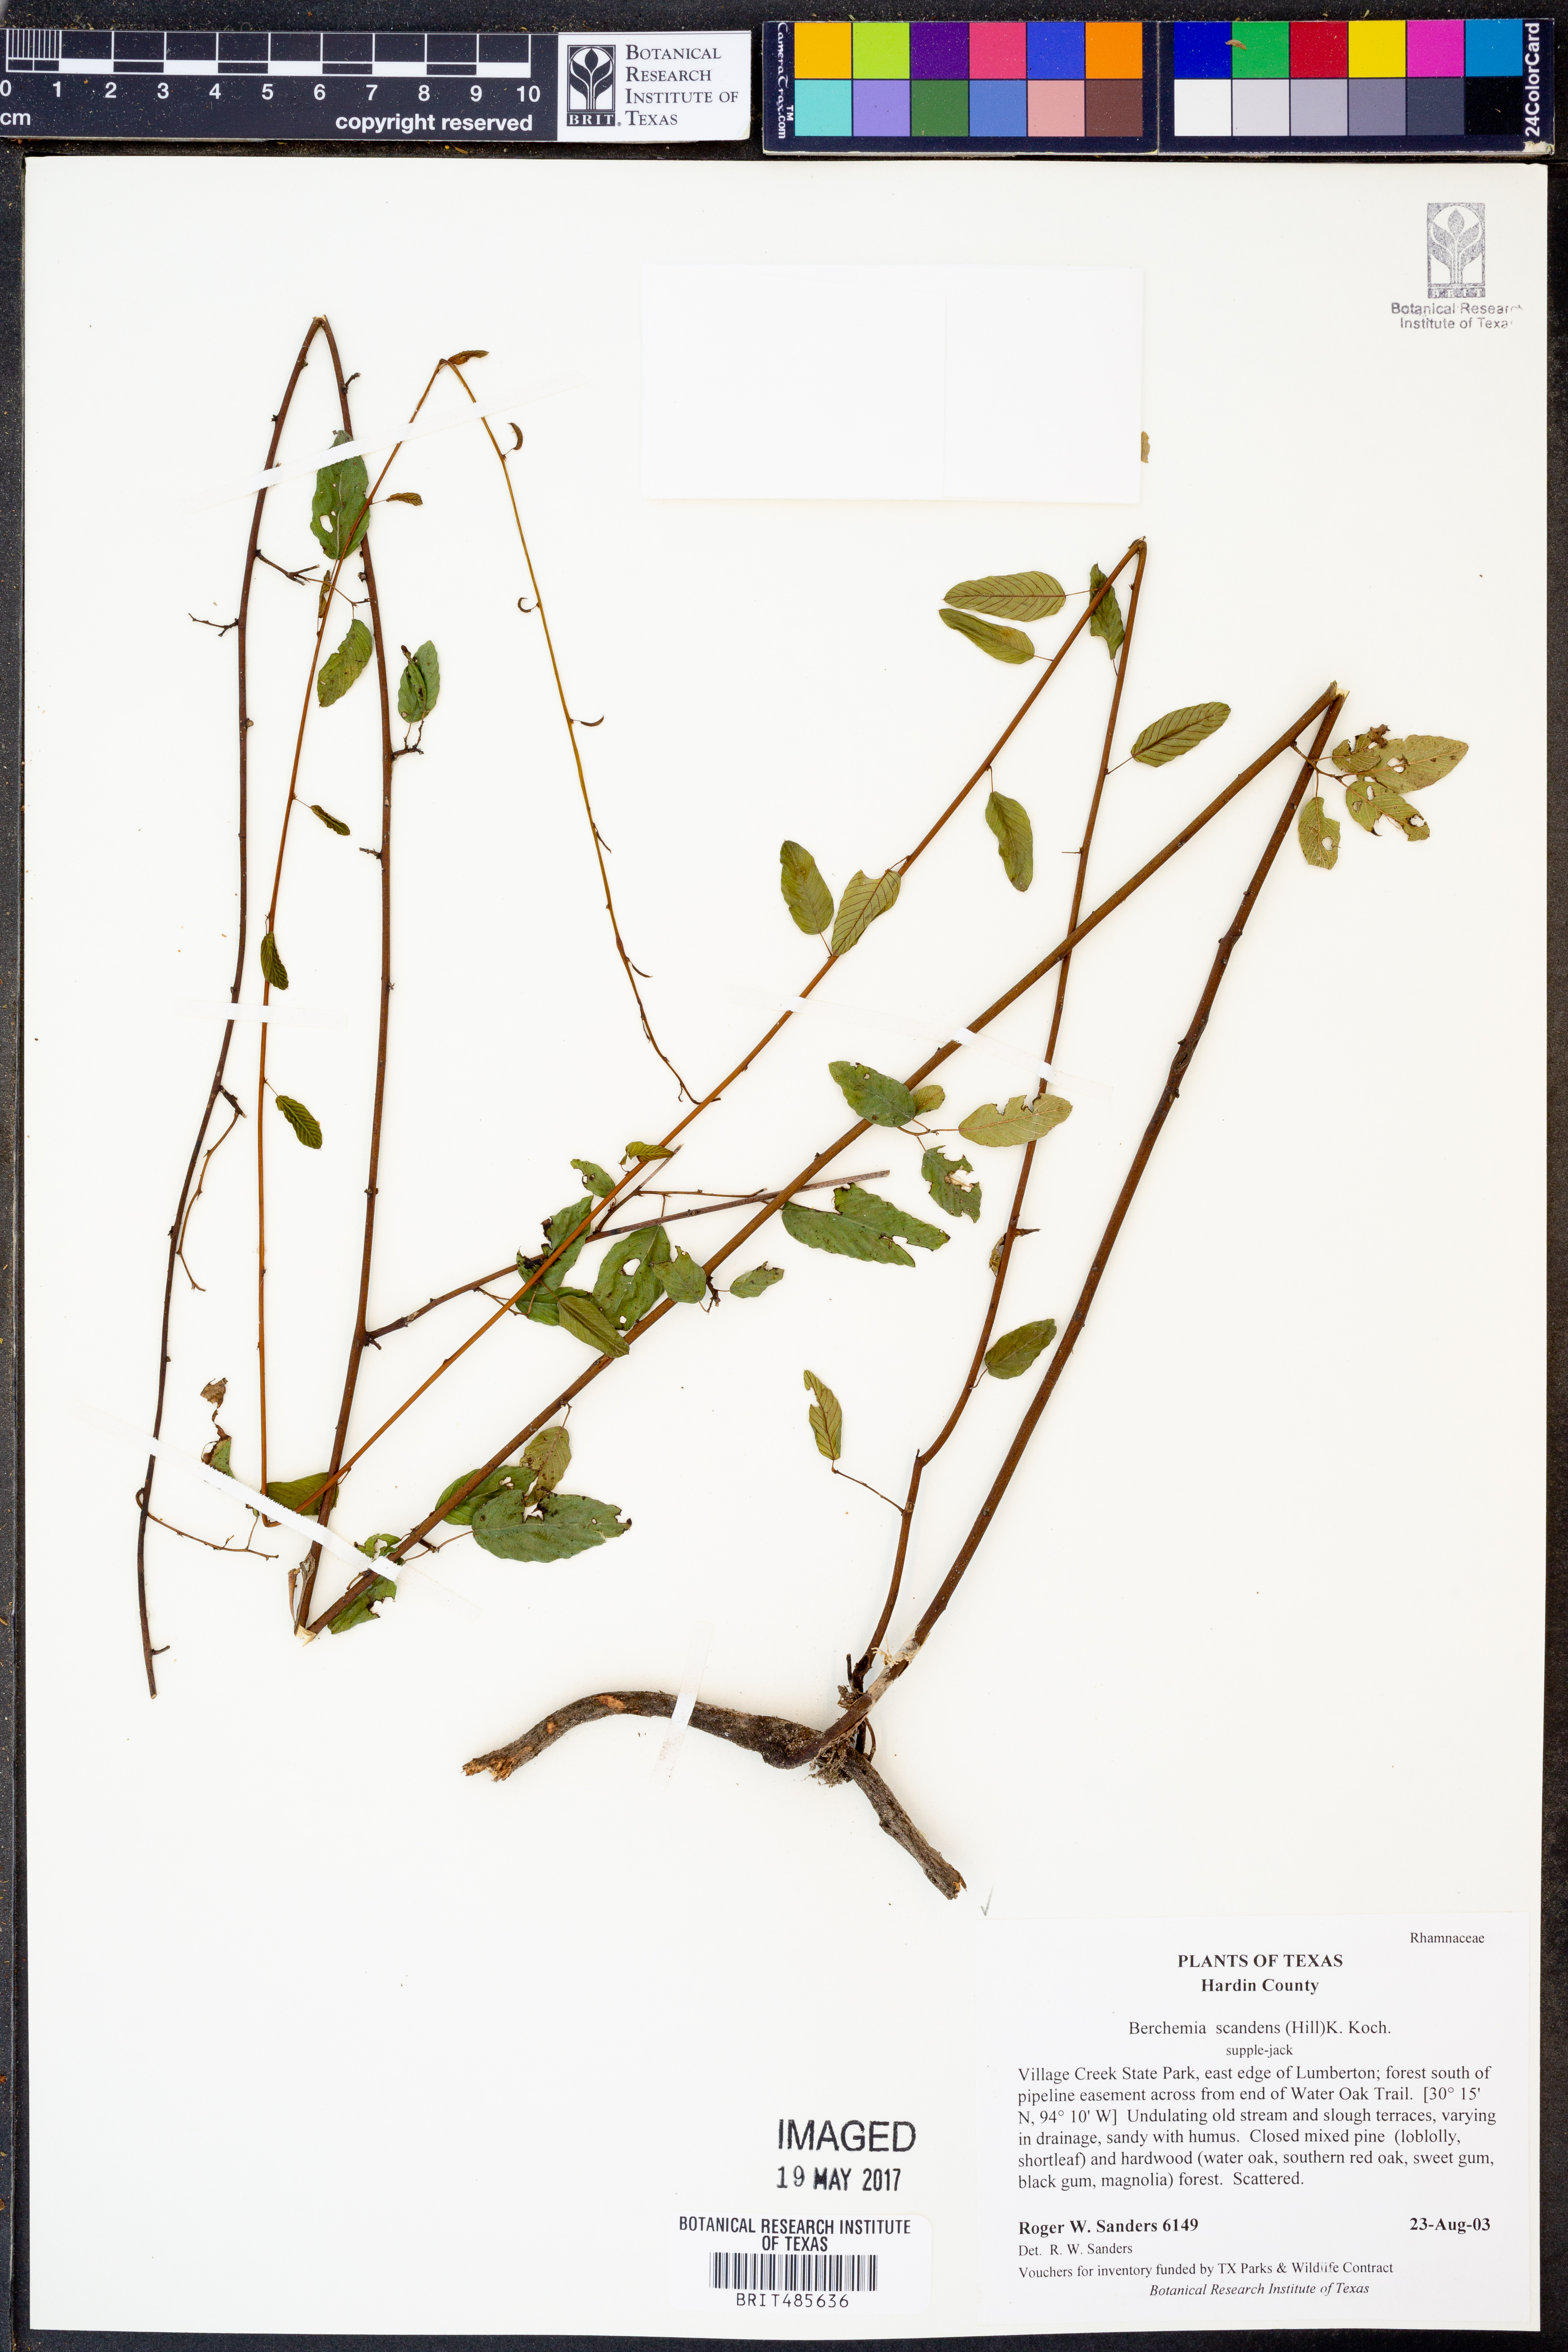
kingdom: Plantae
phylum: Tracheophyta
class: Magnoliopsida
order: Rosales
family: Rhamnaceae
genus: Berchemia
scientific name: Berchemia scandens
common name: Supplejack
